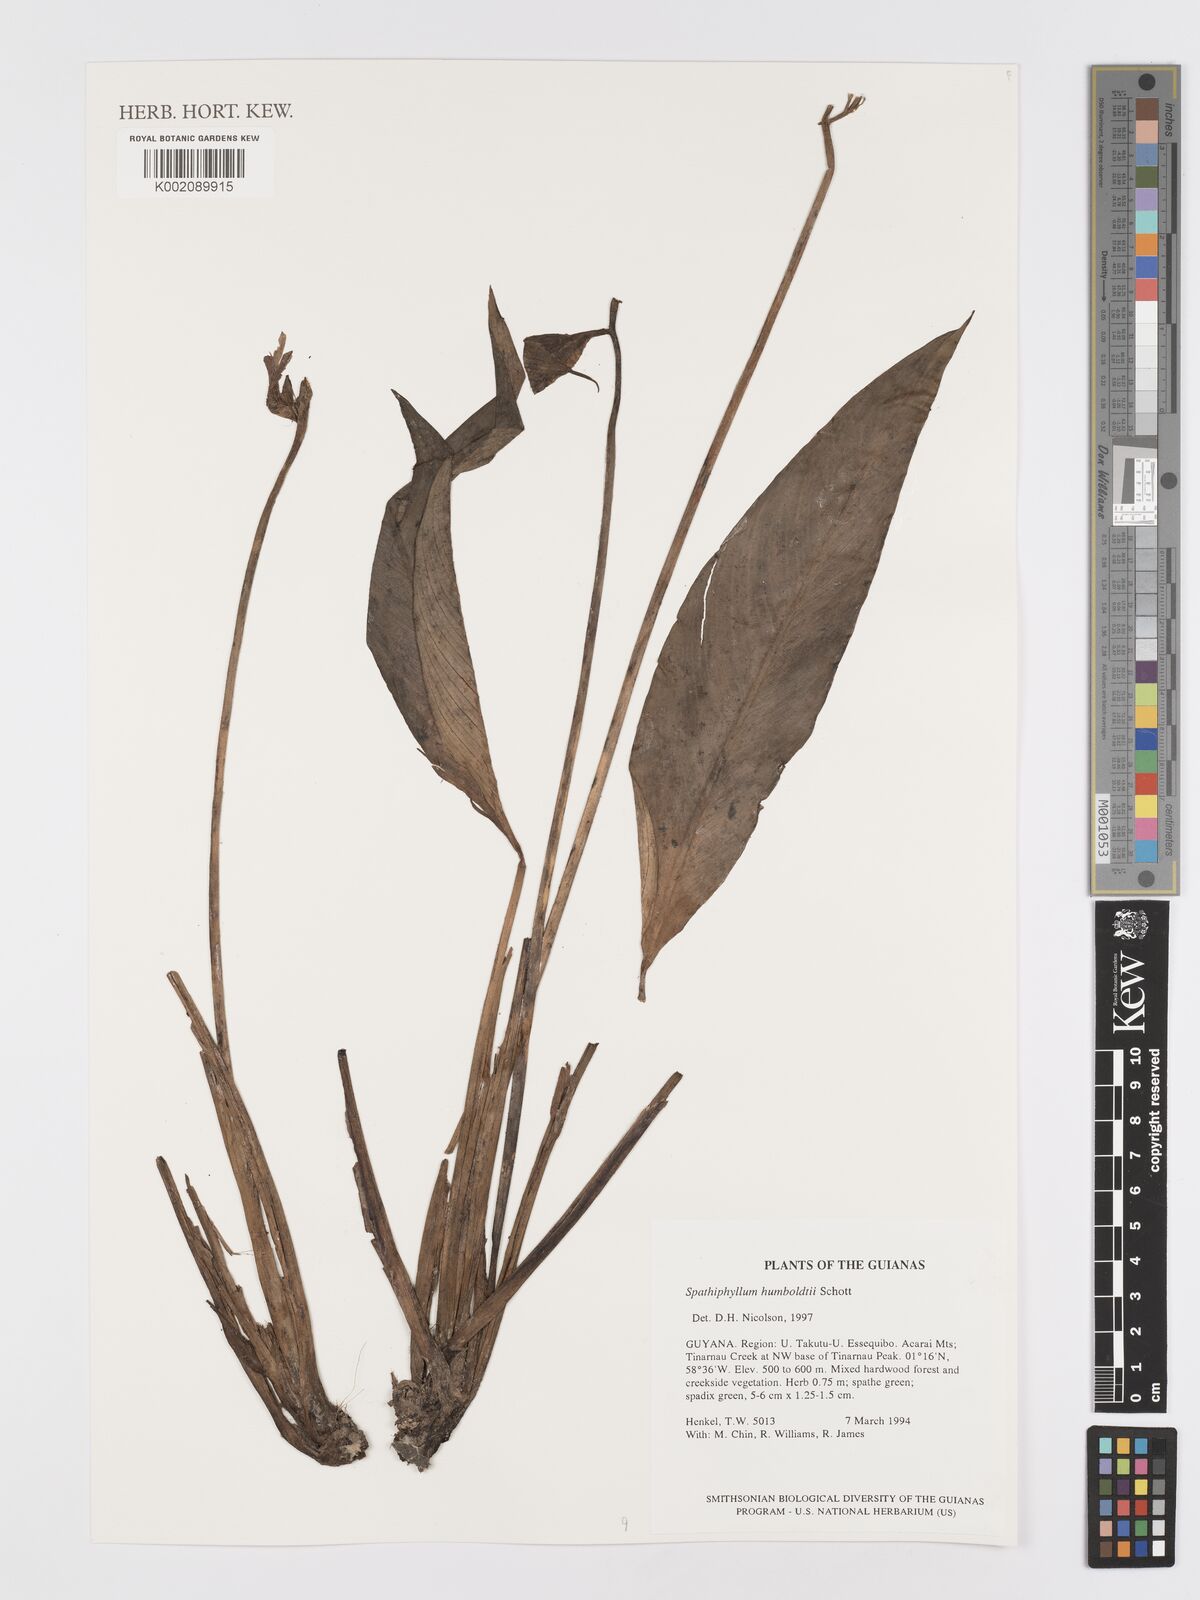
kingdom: Plantae
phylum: Tracheophyta
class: Liliopsida
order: Alismatales
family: Araceae
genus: Spathiphyllum
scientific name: Spathiphyllum humboldtii
